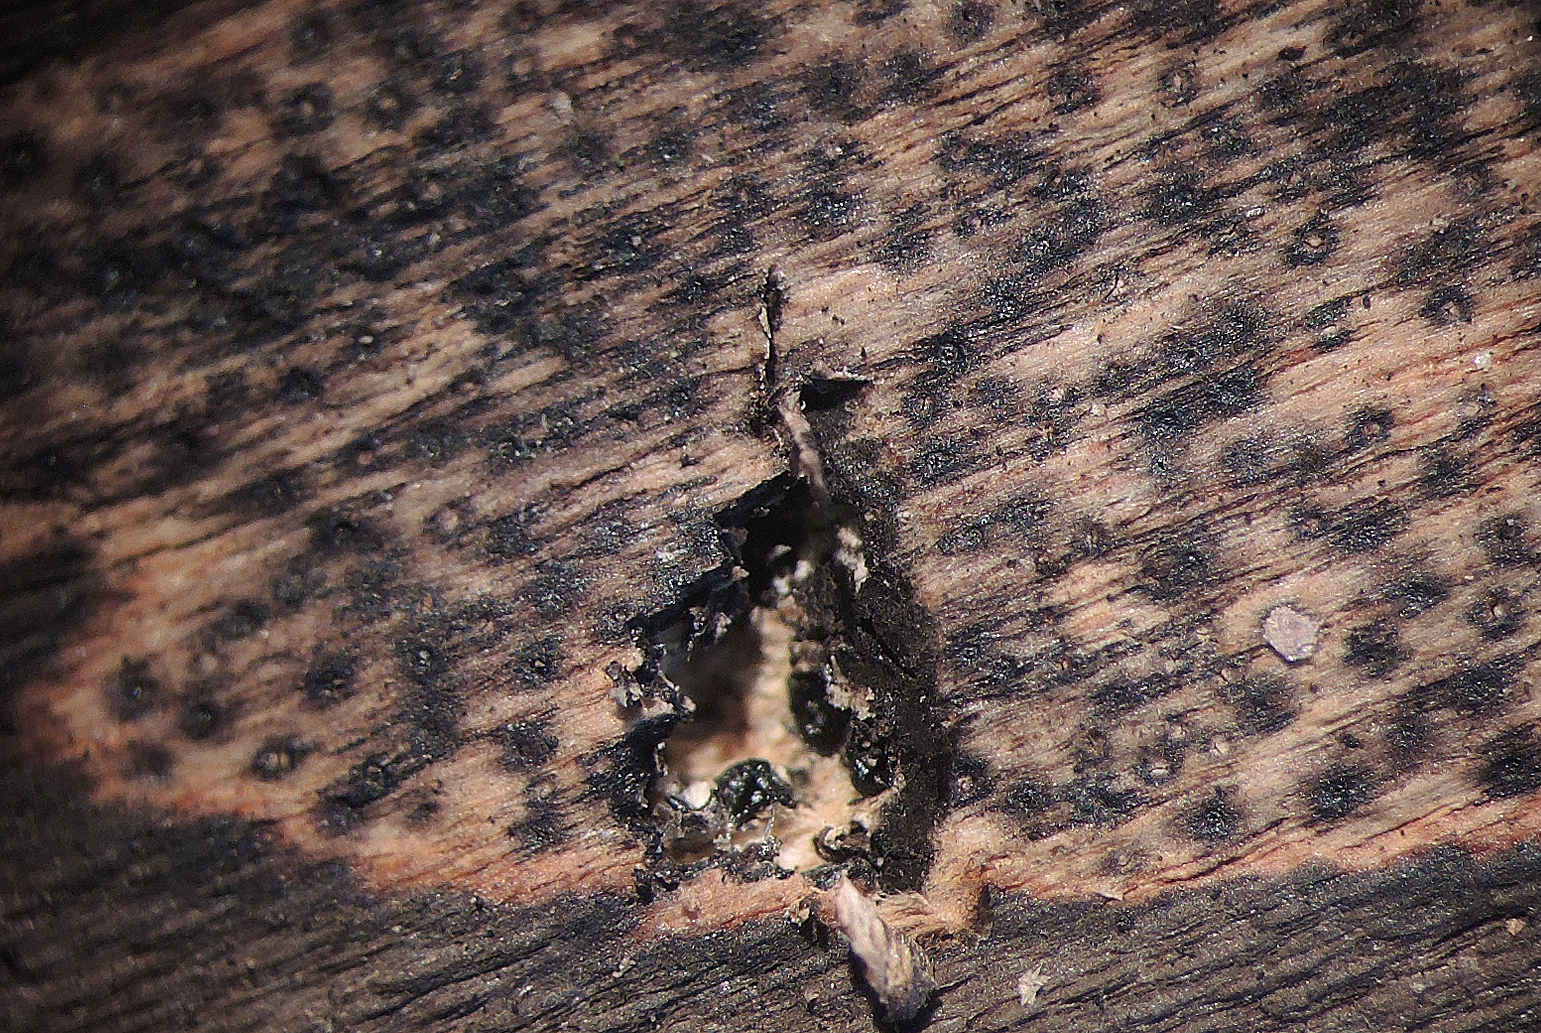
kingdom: Fungi
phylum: Ascomycota
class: Sordariomycetes
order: Xylariales
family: Lopadostomataceae
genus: Lopadostoma
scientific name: Lopadostoma pouzarii
